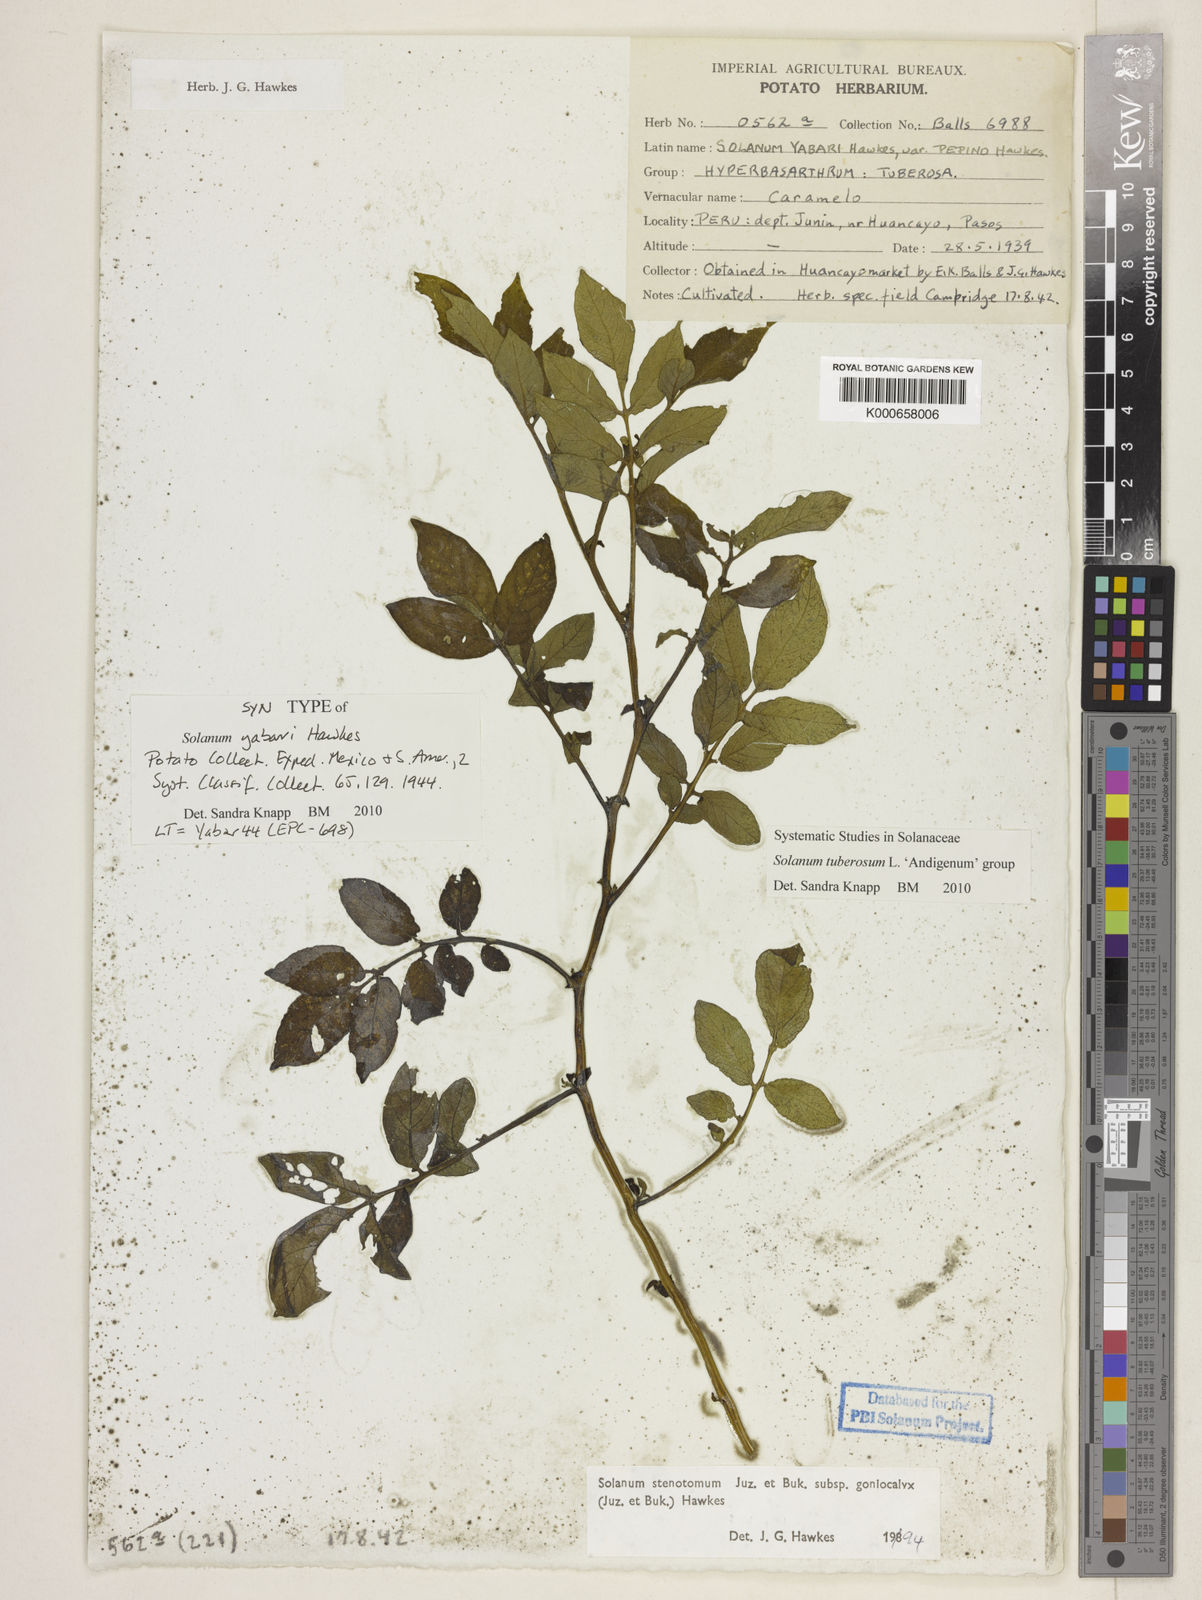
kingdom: Plantae
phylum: Tracheophyta
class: Magnoliopsida
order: Solanales
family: Solanaceae
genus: Solanum
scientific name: Solanum tuberosum
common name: Potato
